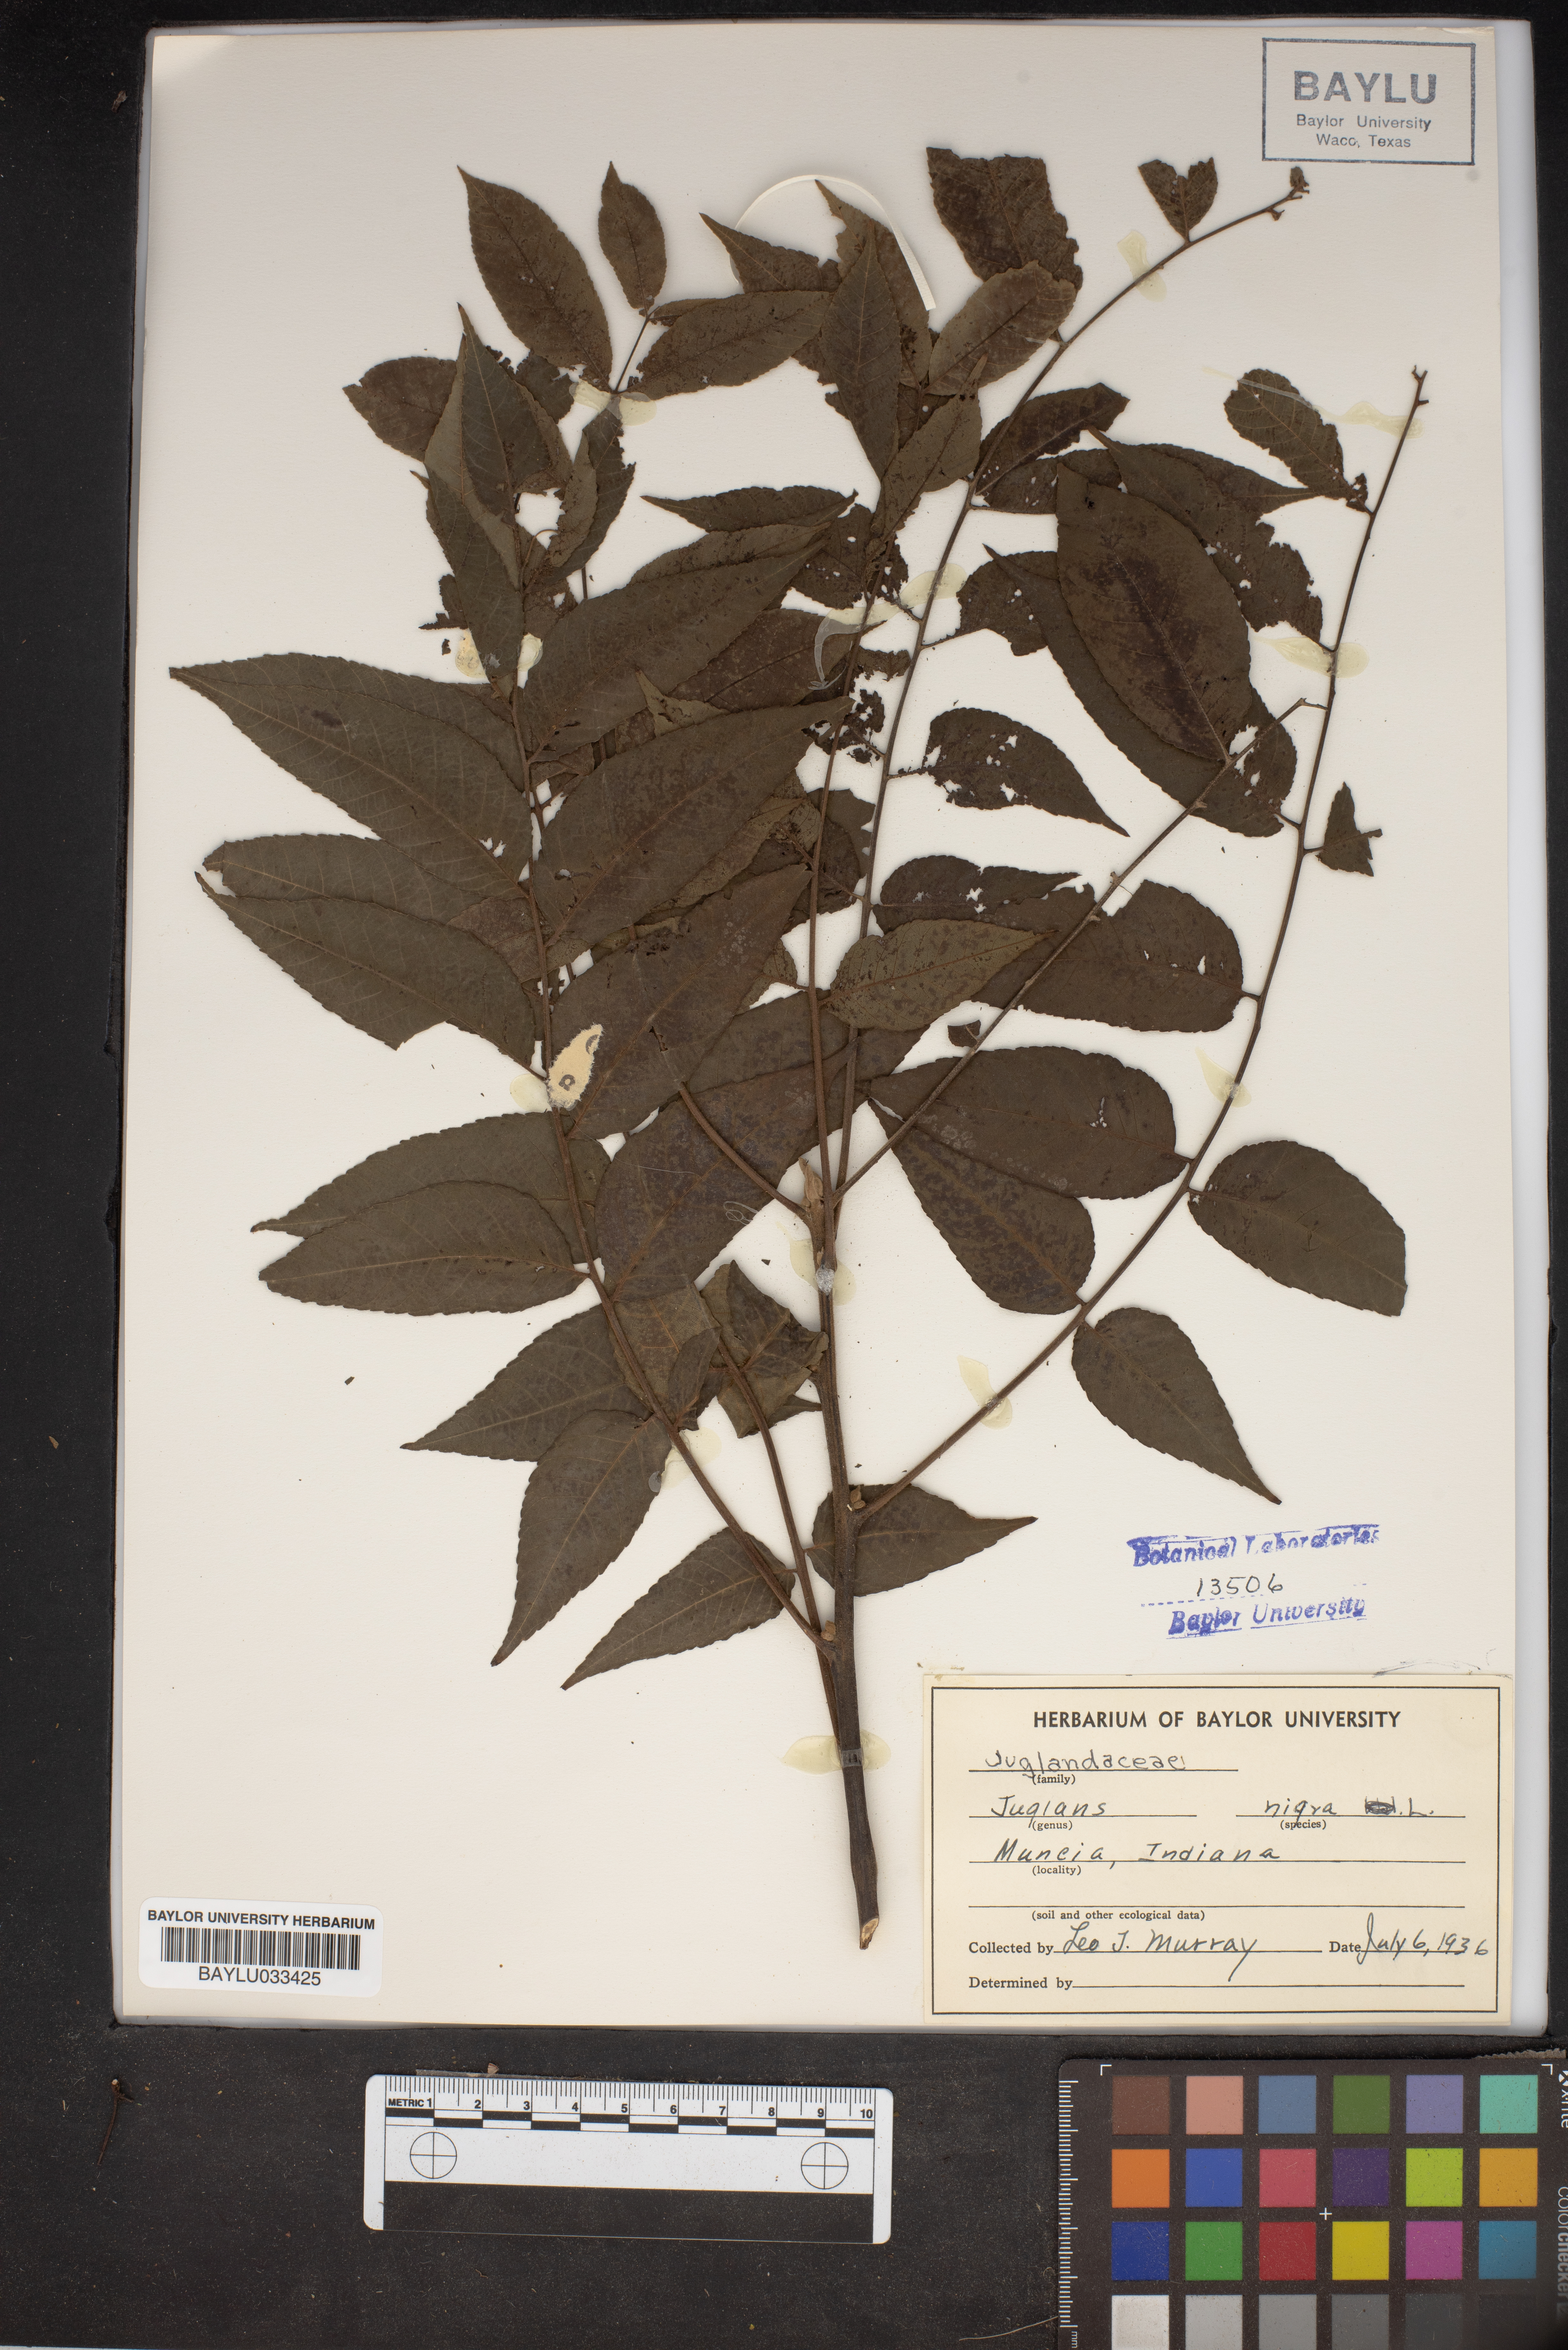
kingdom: Plantae
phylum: Tracheophyta
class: Magnoliopsida
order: Fagales
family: Juglandaceae
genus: Juglans
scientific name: Juglans nigra
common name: Black walnut
